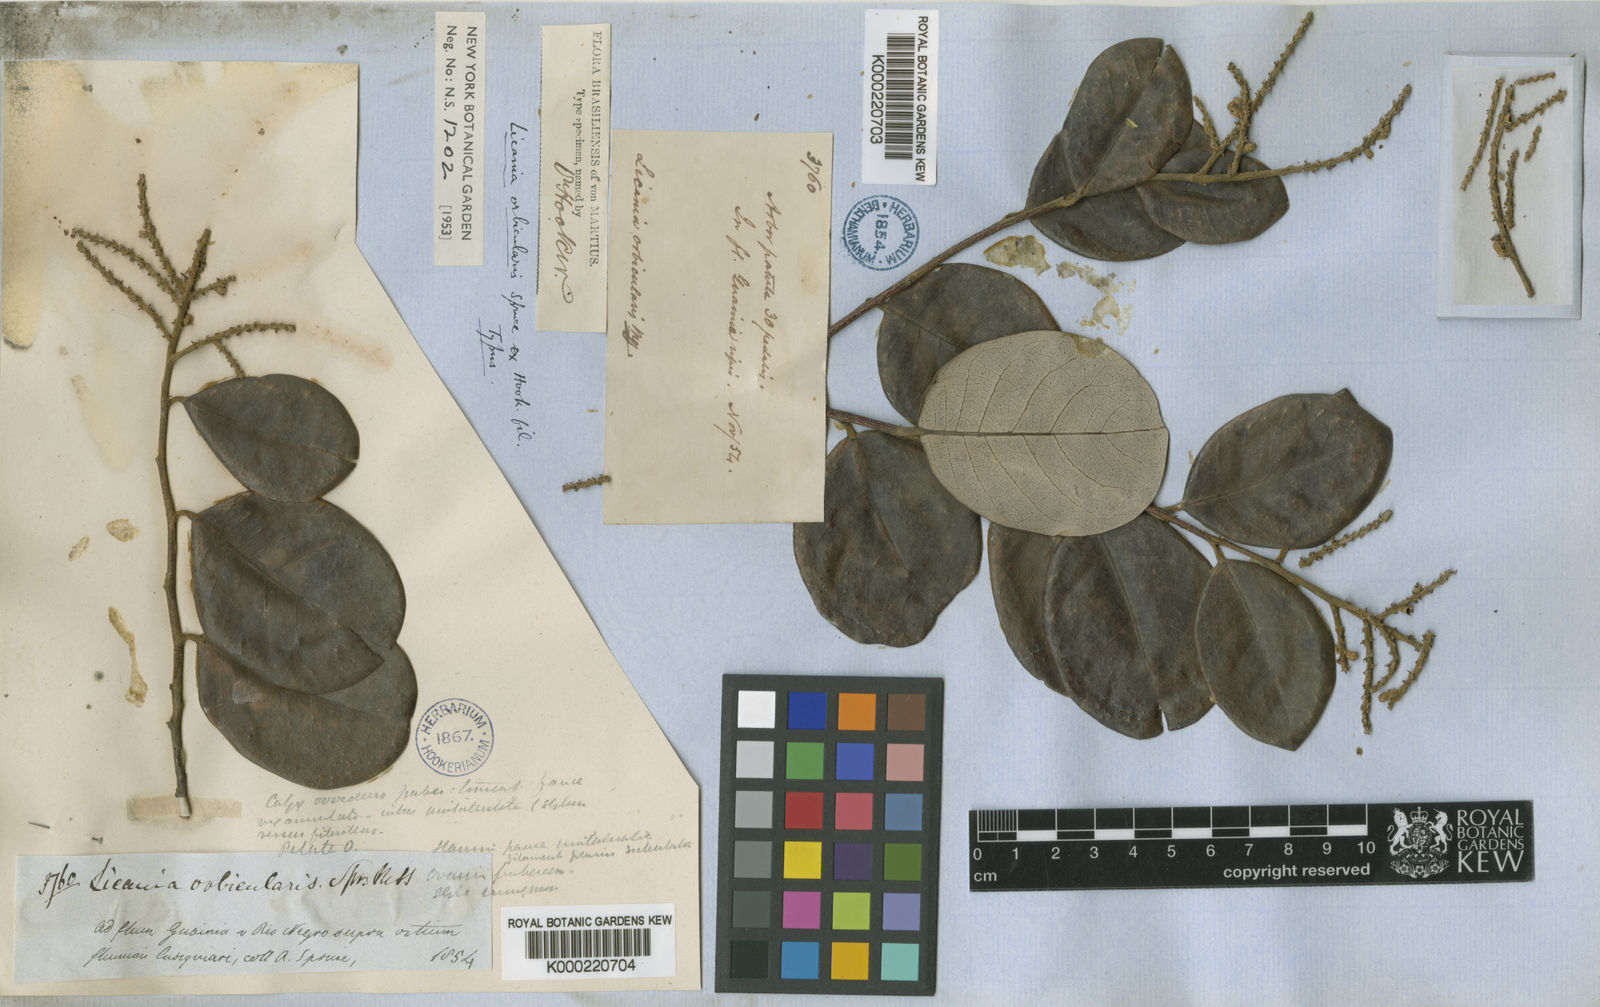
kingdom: Plantae
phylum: Tracheophyta
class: Magnoliopsida
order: Malpighiales
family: Chrysobalanaceae
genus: Licania
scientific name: Licania orbicularis
